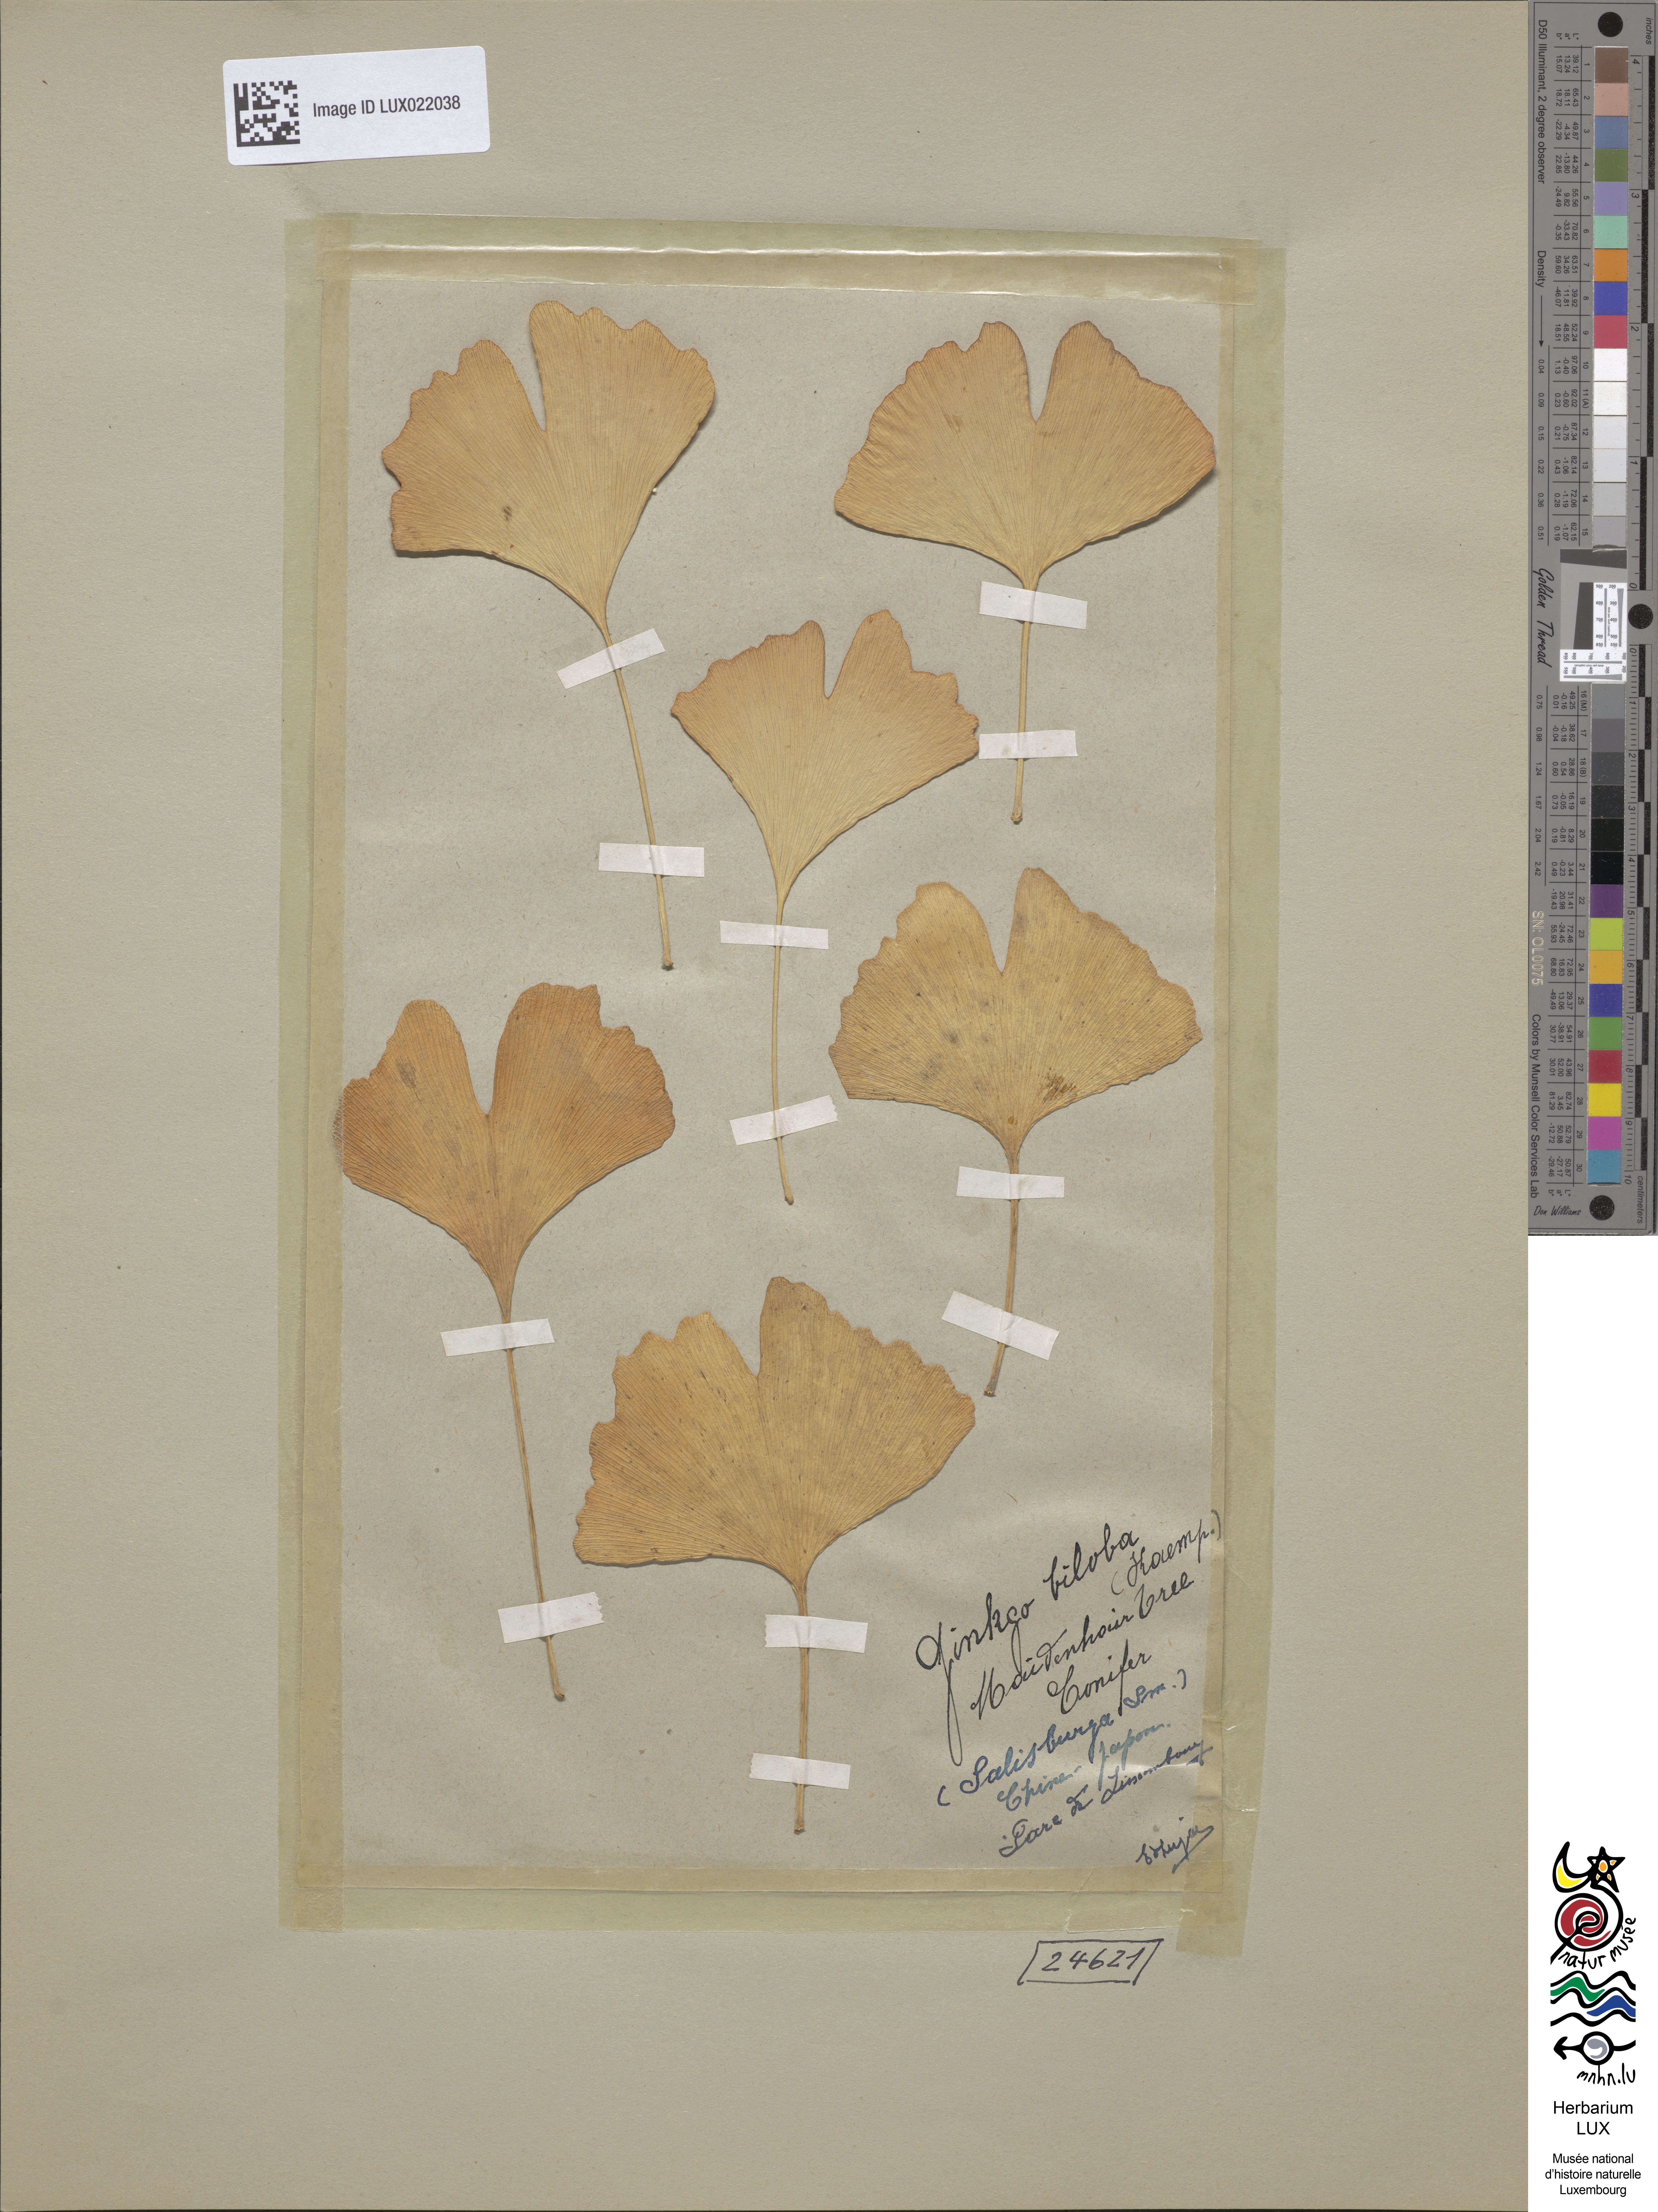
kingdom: Plantae
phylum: Tracheophyta
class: Ginkgoopsida
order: Ginkgoales
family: Ginkgoaceae
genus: Ginkgo
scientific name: Ginkgo biloba
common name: Ginkgo
